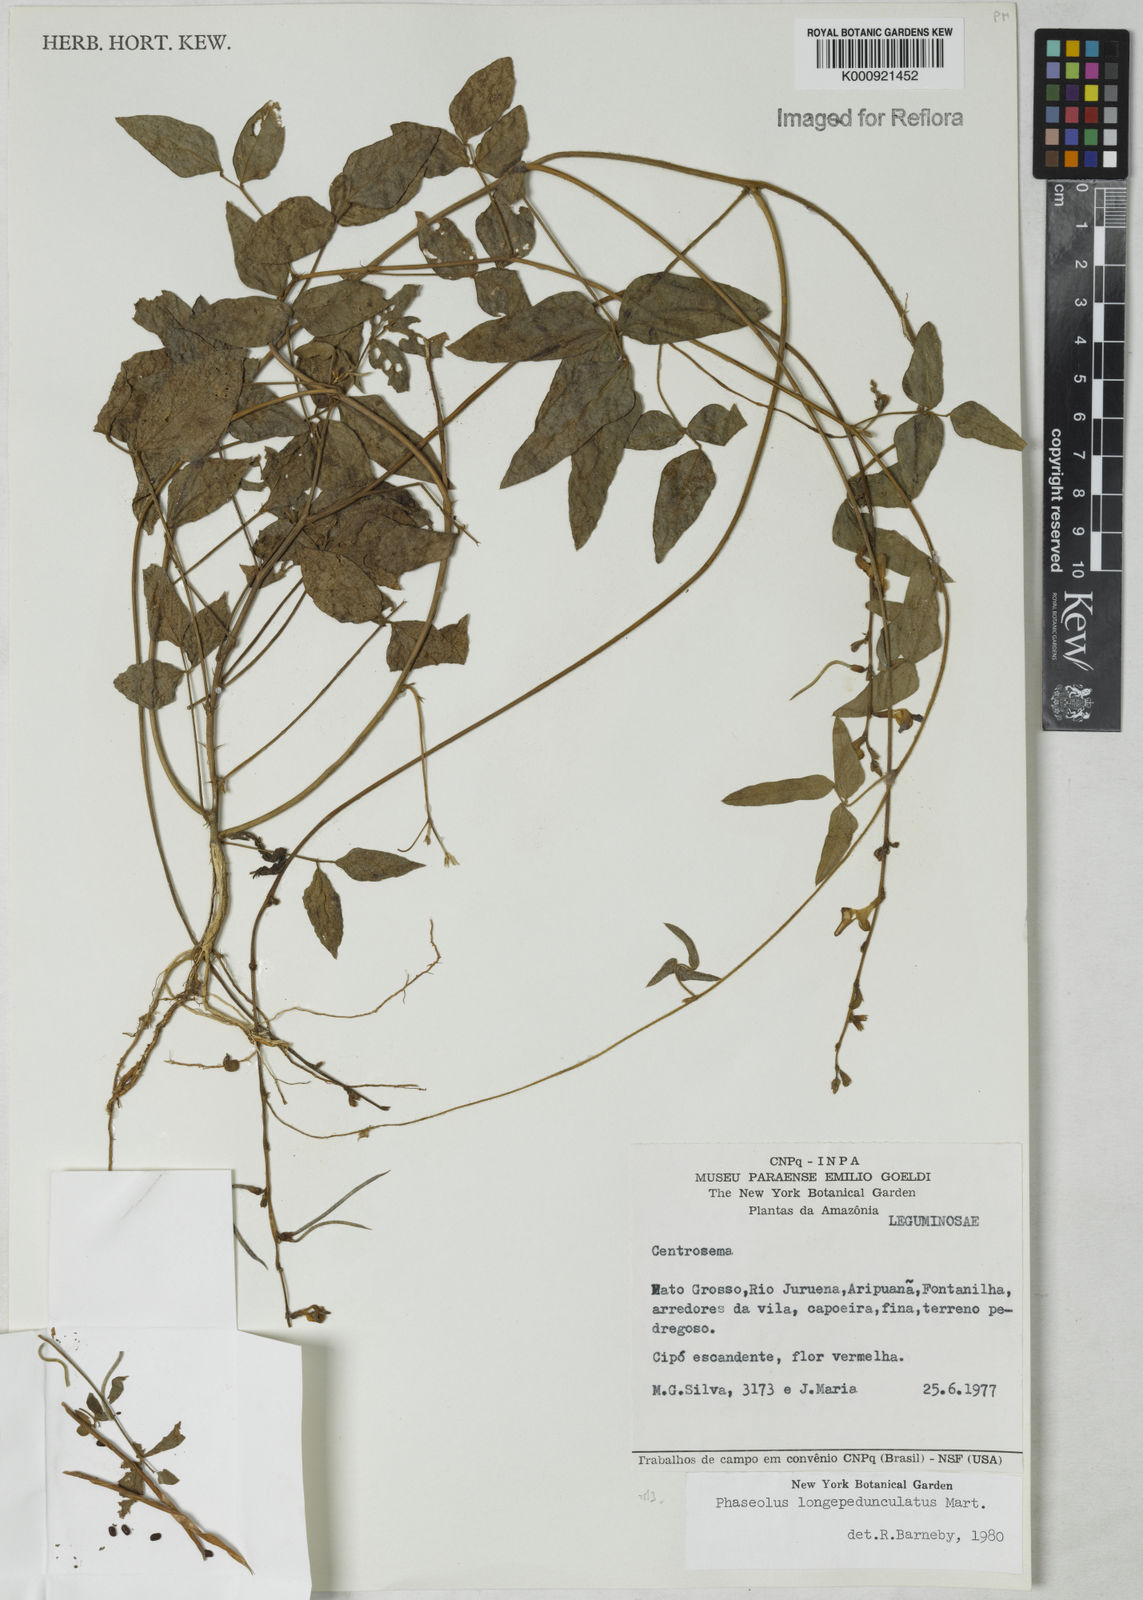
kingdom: Plantae
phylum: Tracheophyta
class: Magnoliopsida
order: Fabales
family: Fabaceae
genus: Macroptilium
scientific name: Macroptilium
